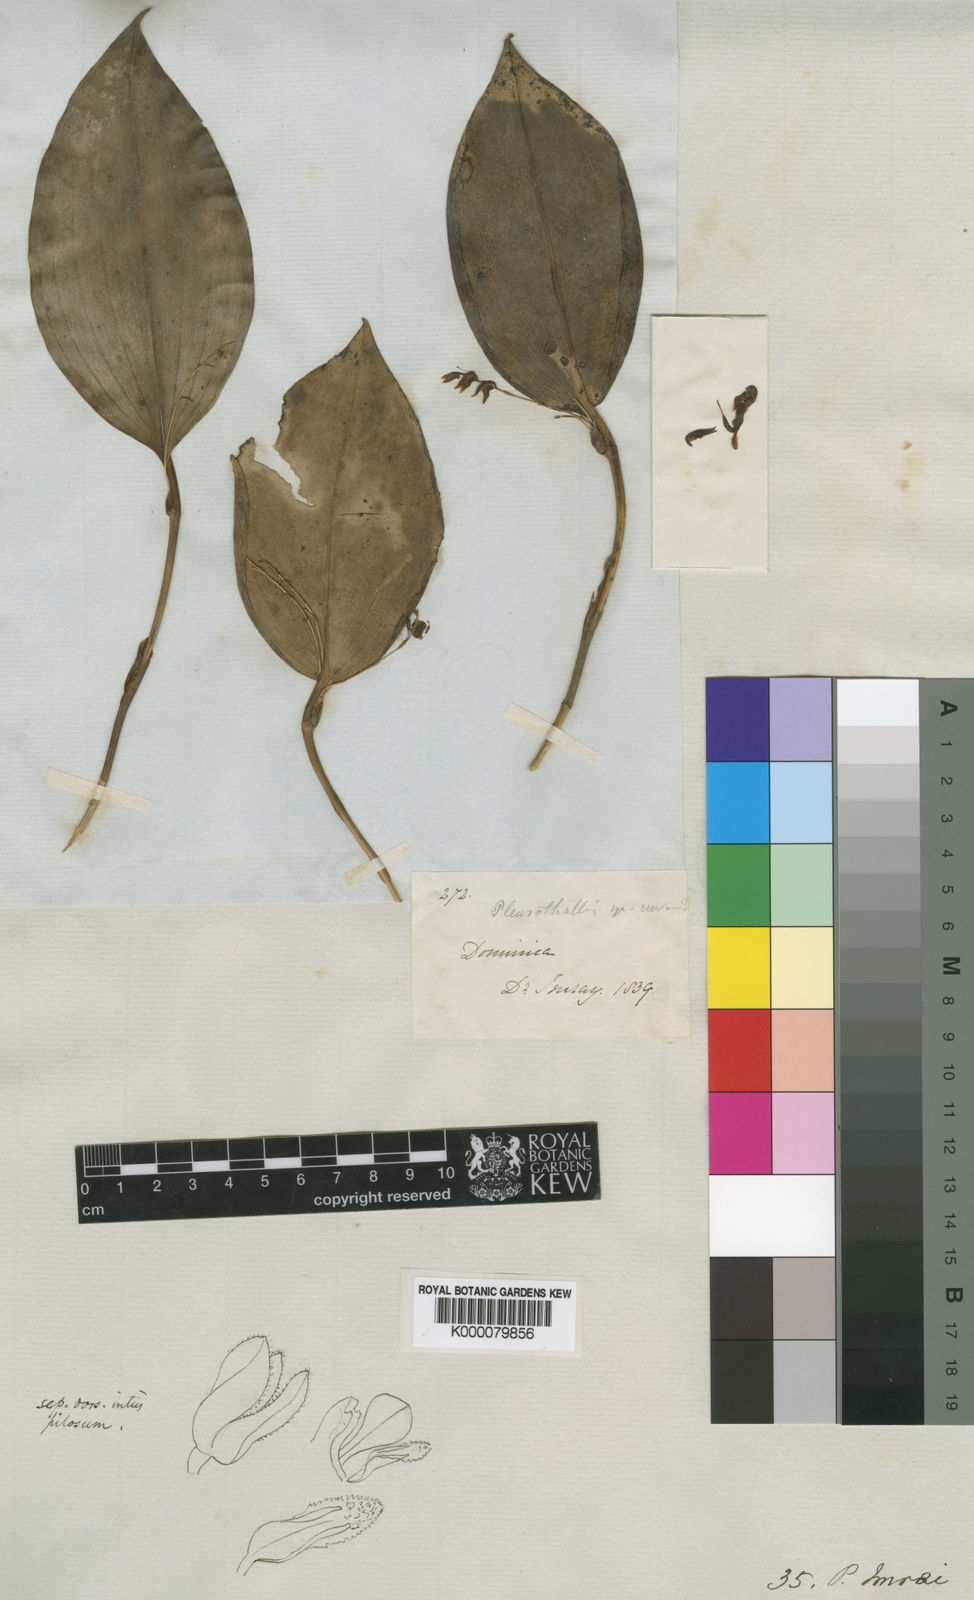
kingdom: Plantae
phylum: Tracheophyta
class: Liliopsida
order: Asparagales
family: Orchidaceae
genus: Stelis
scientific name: Stelis imraei
